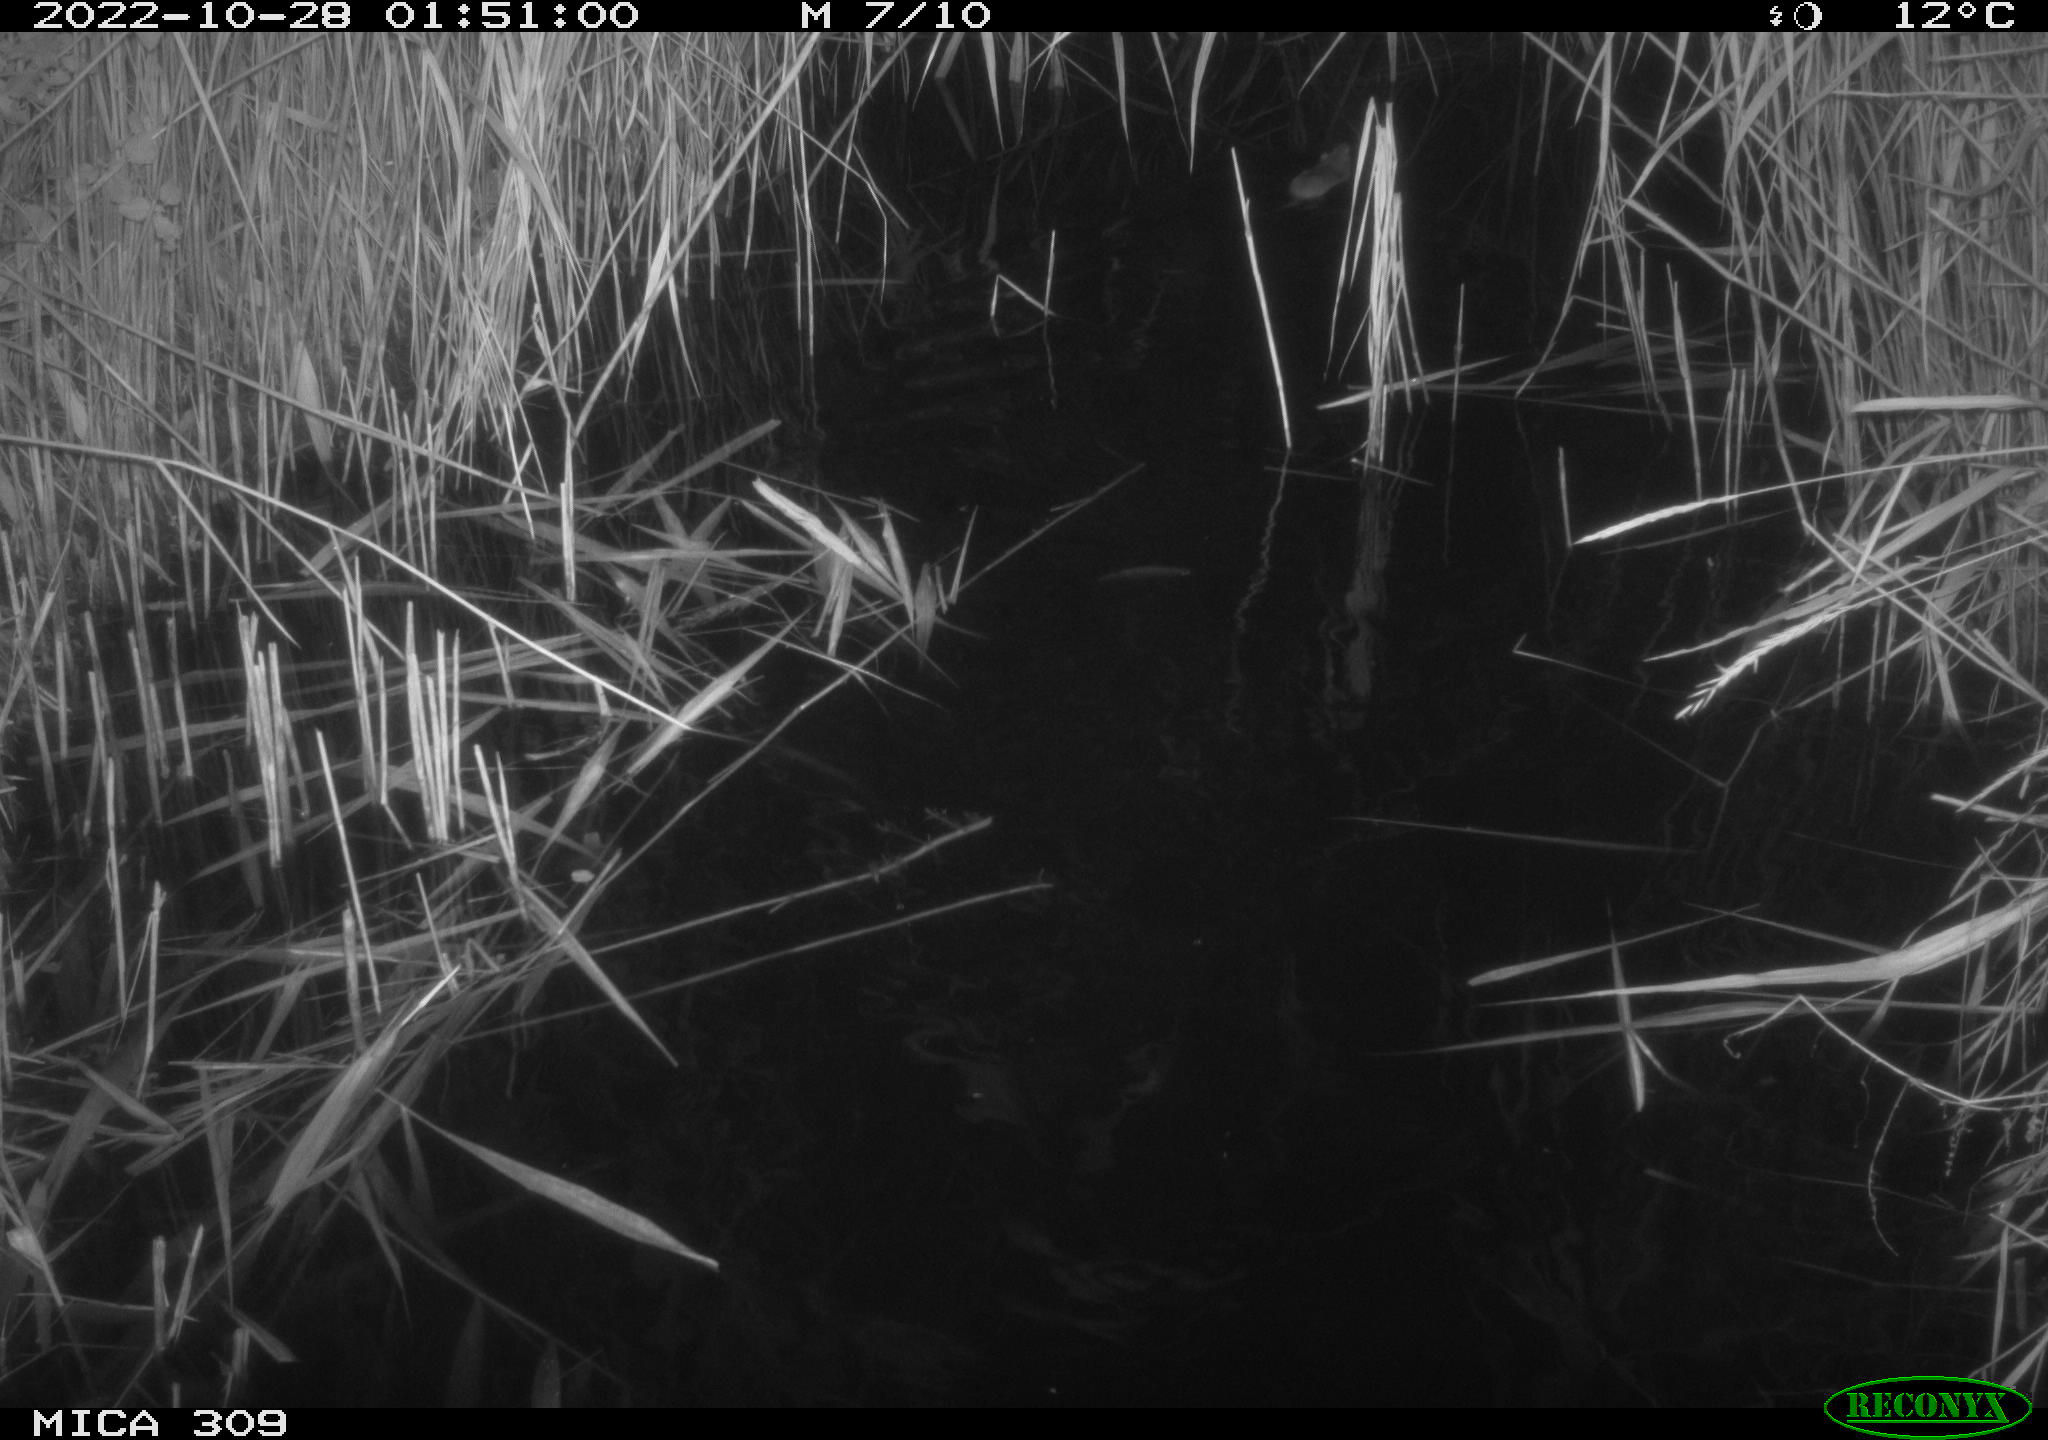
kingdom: Animalia
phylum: Chordata
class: Mammalia
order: Rodentia
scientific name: Rodentia
